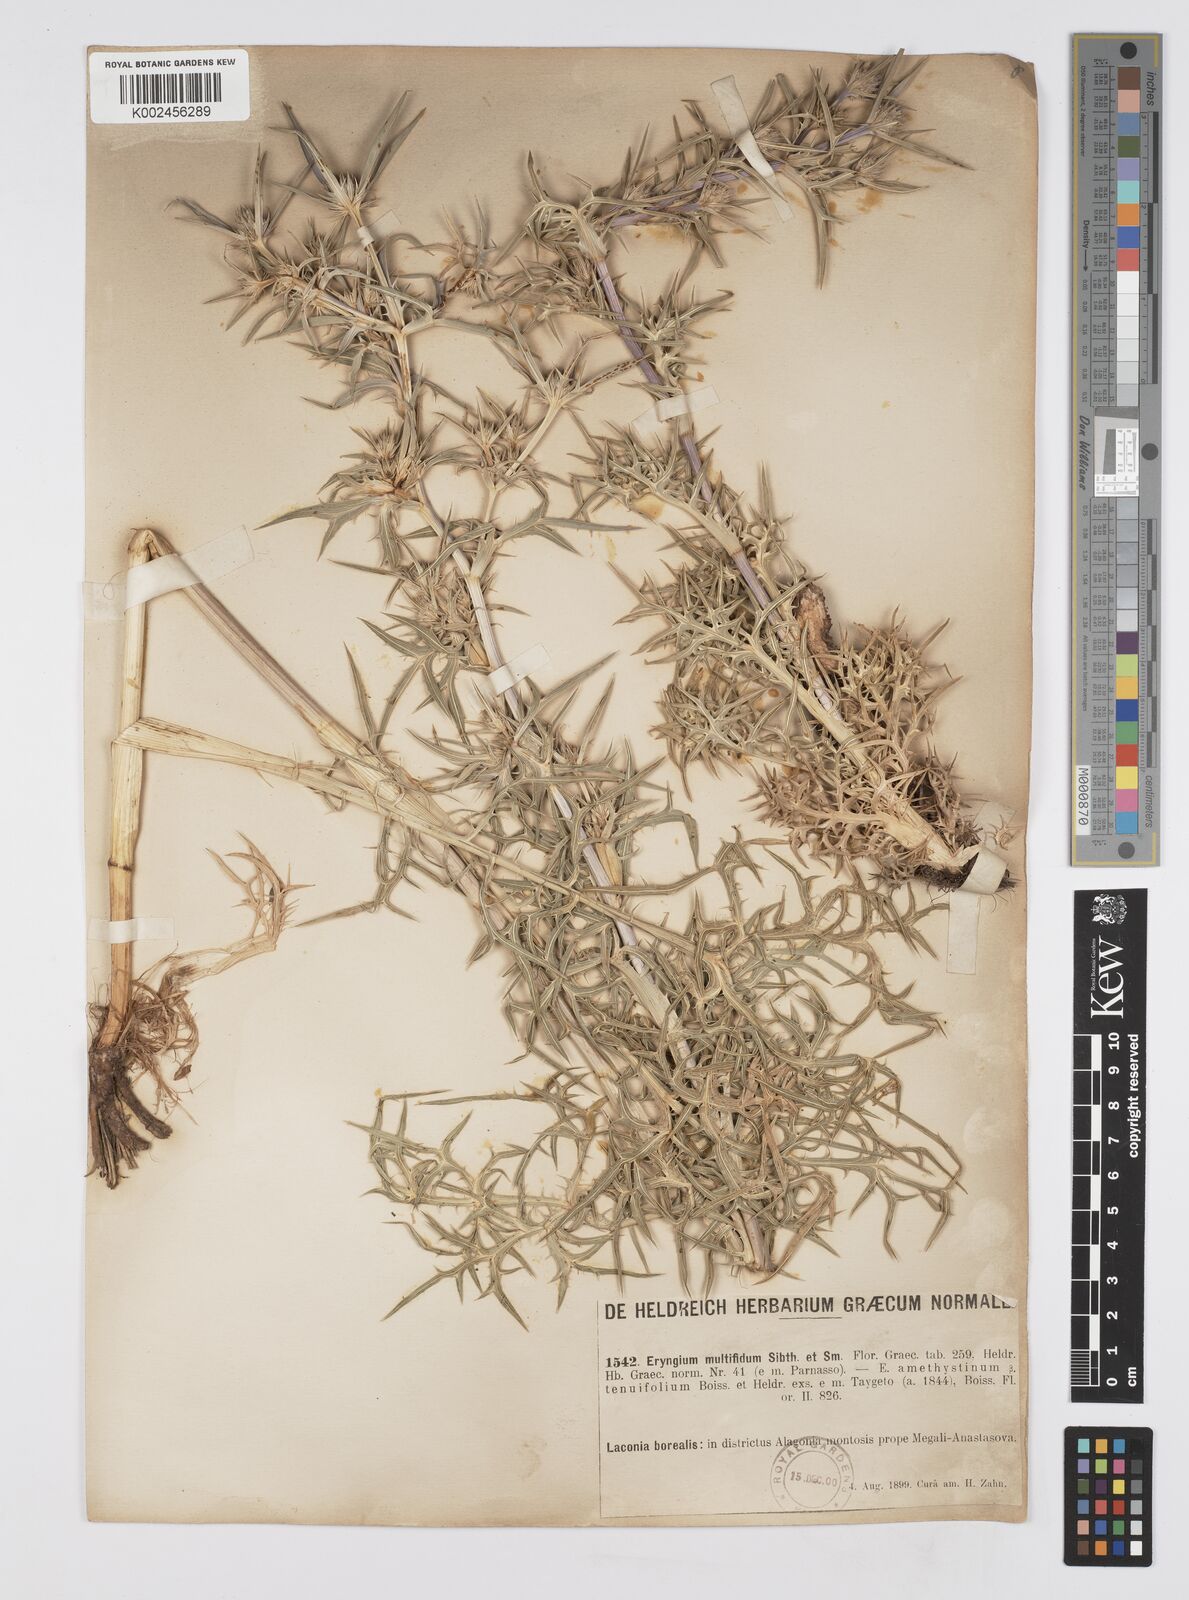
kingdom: Plantae
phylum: Tracheophyta
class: Magnoliopsida
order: Apiales
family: Apiaceae
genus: Eryngium
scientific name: Eryngium amethystinum
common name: Amethyst eryngo
